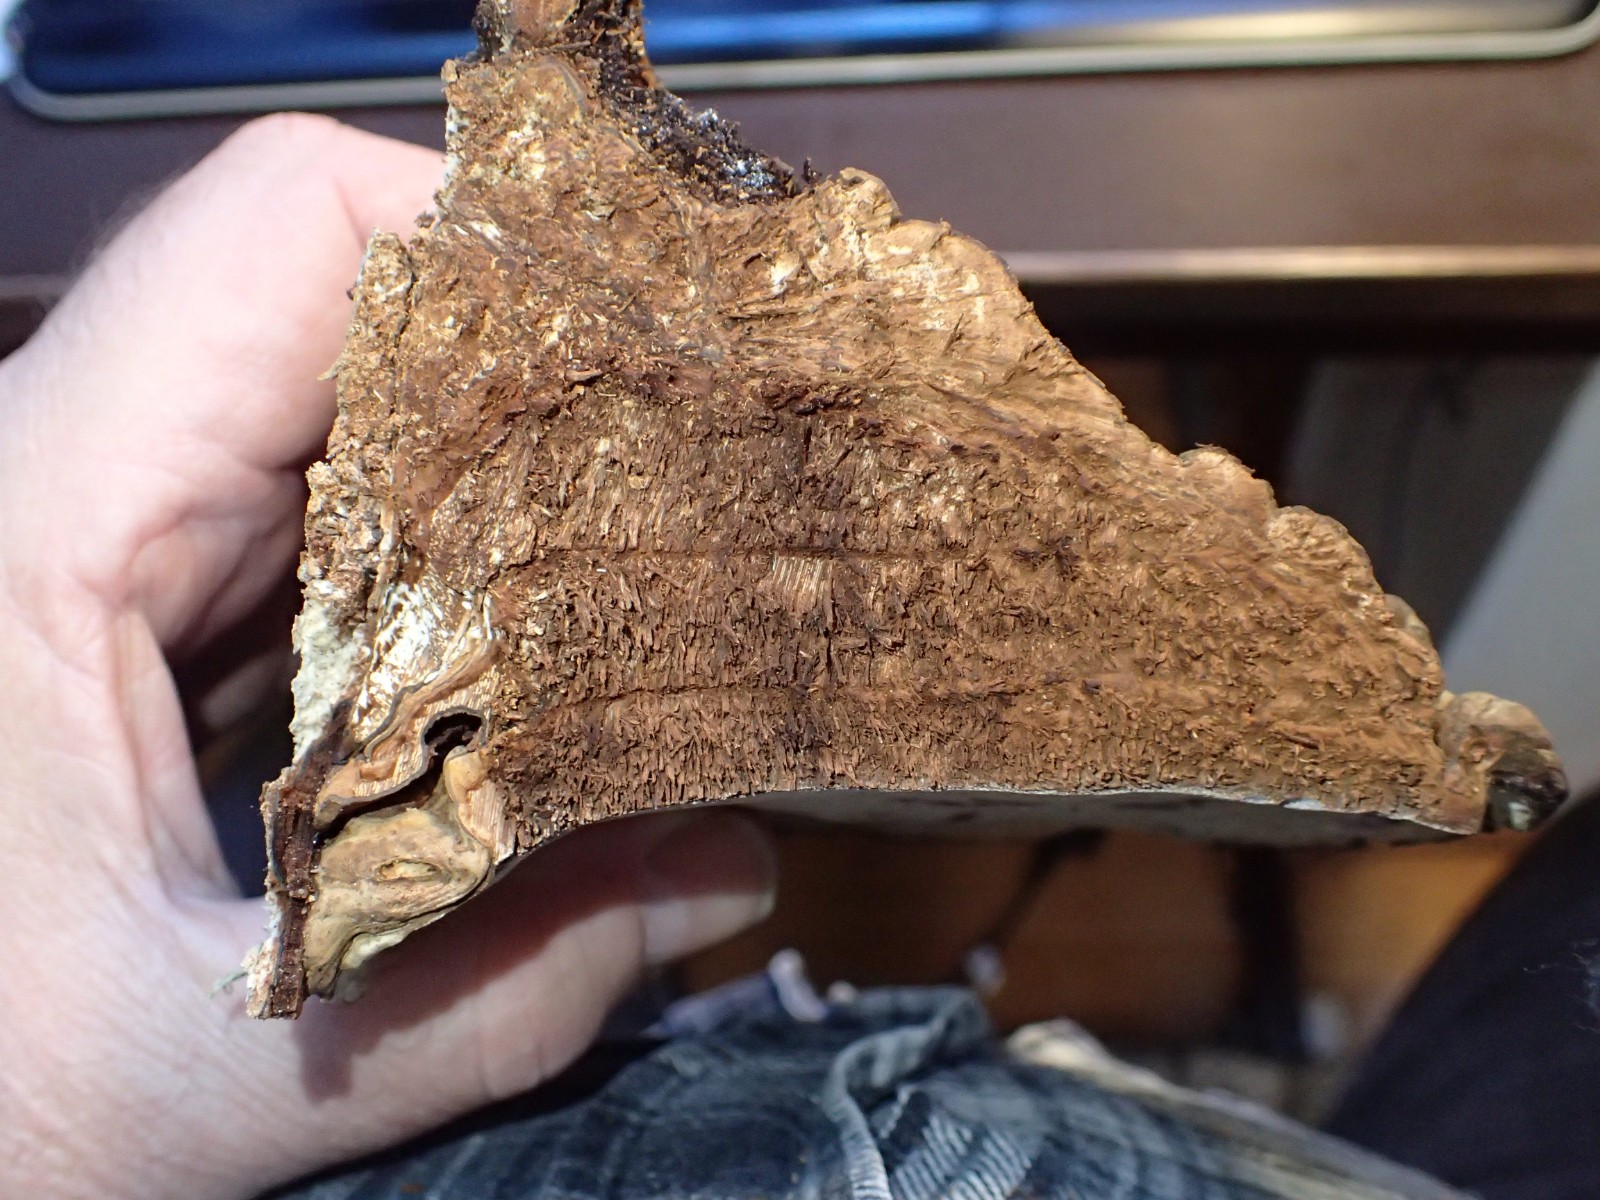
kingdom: Fungi
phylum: Basidiomycota
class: Agaricomycetes
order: Polyporales
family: Polyporaceae
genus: Ganoderma
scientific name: Ganoderma
